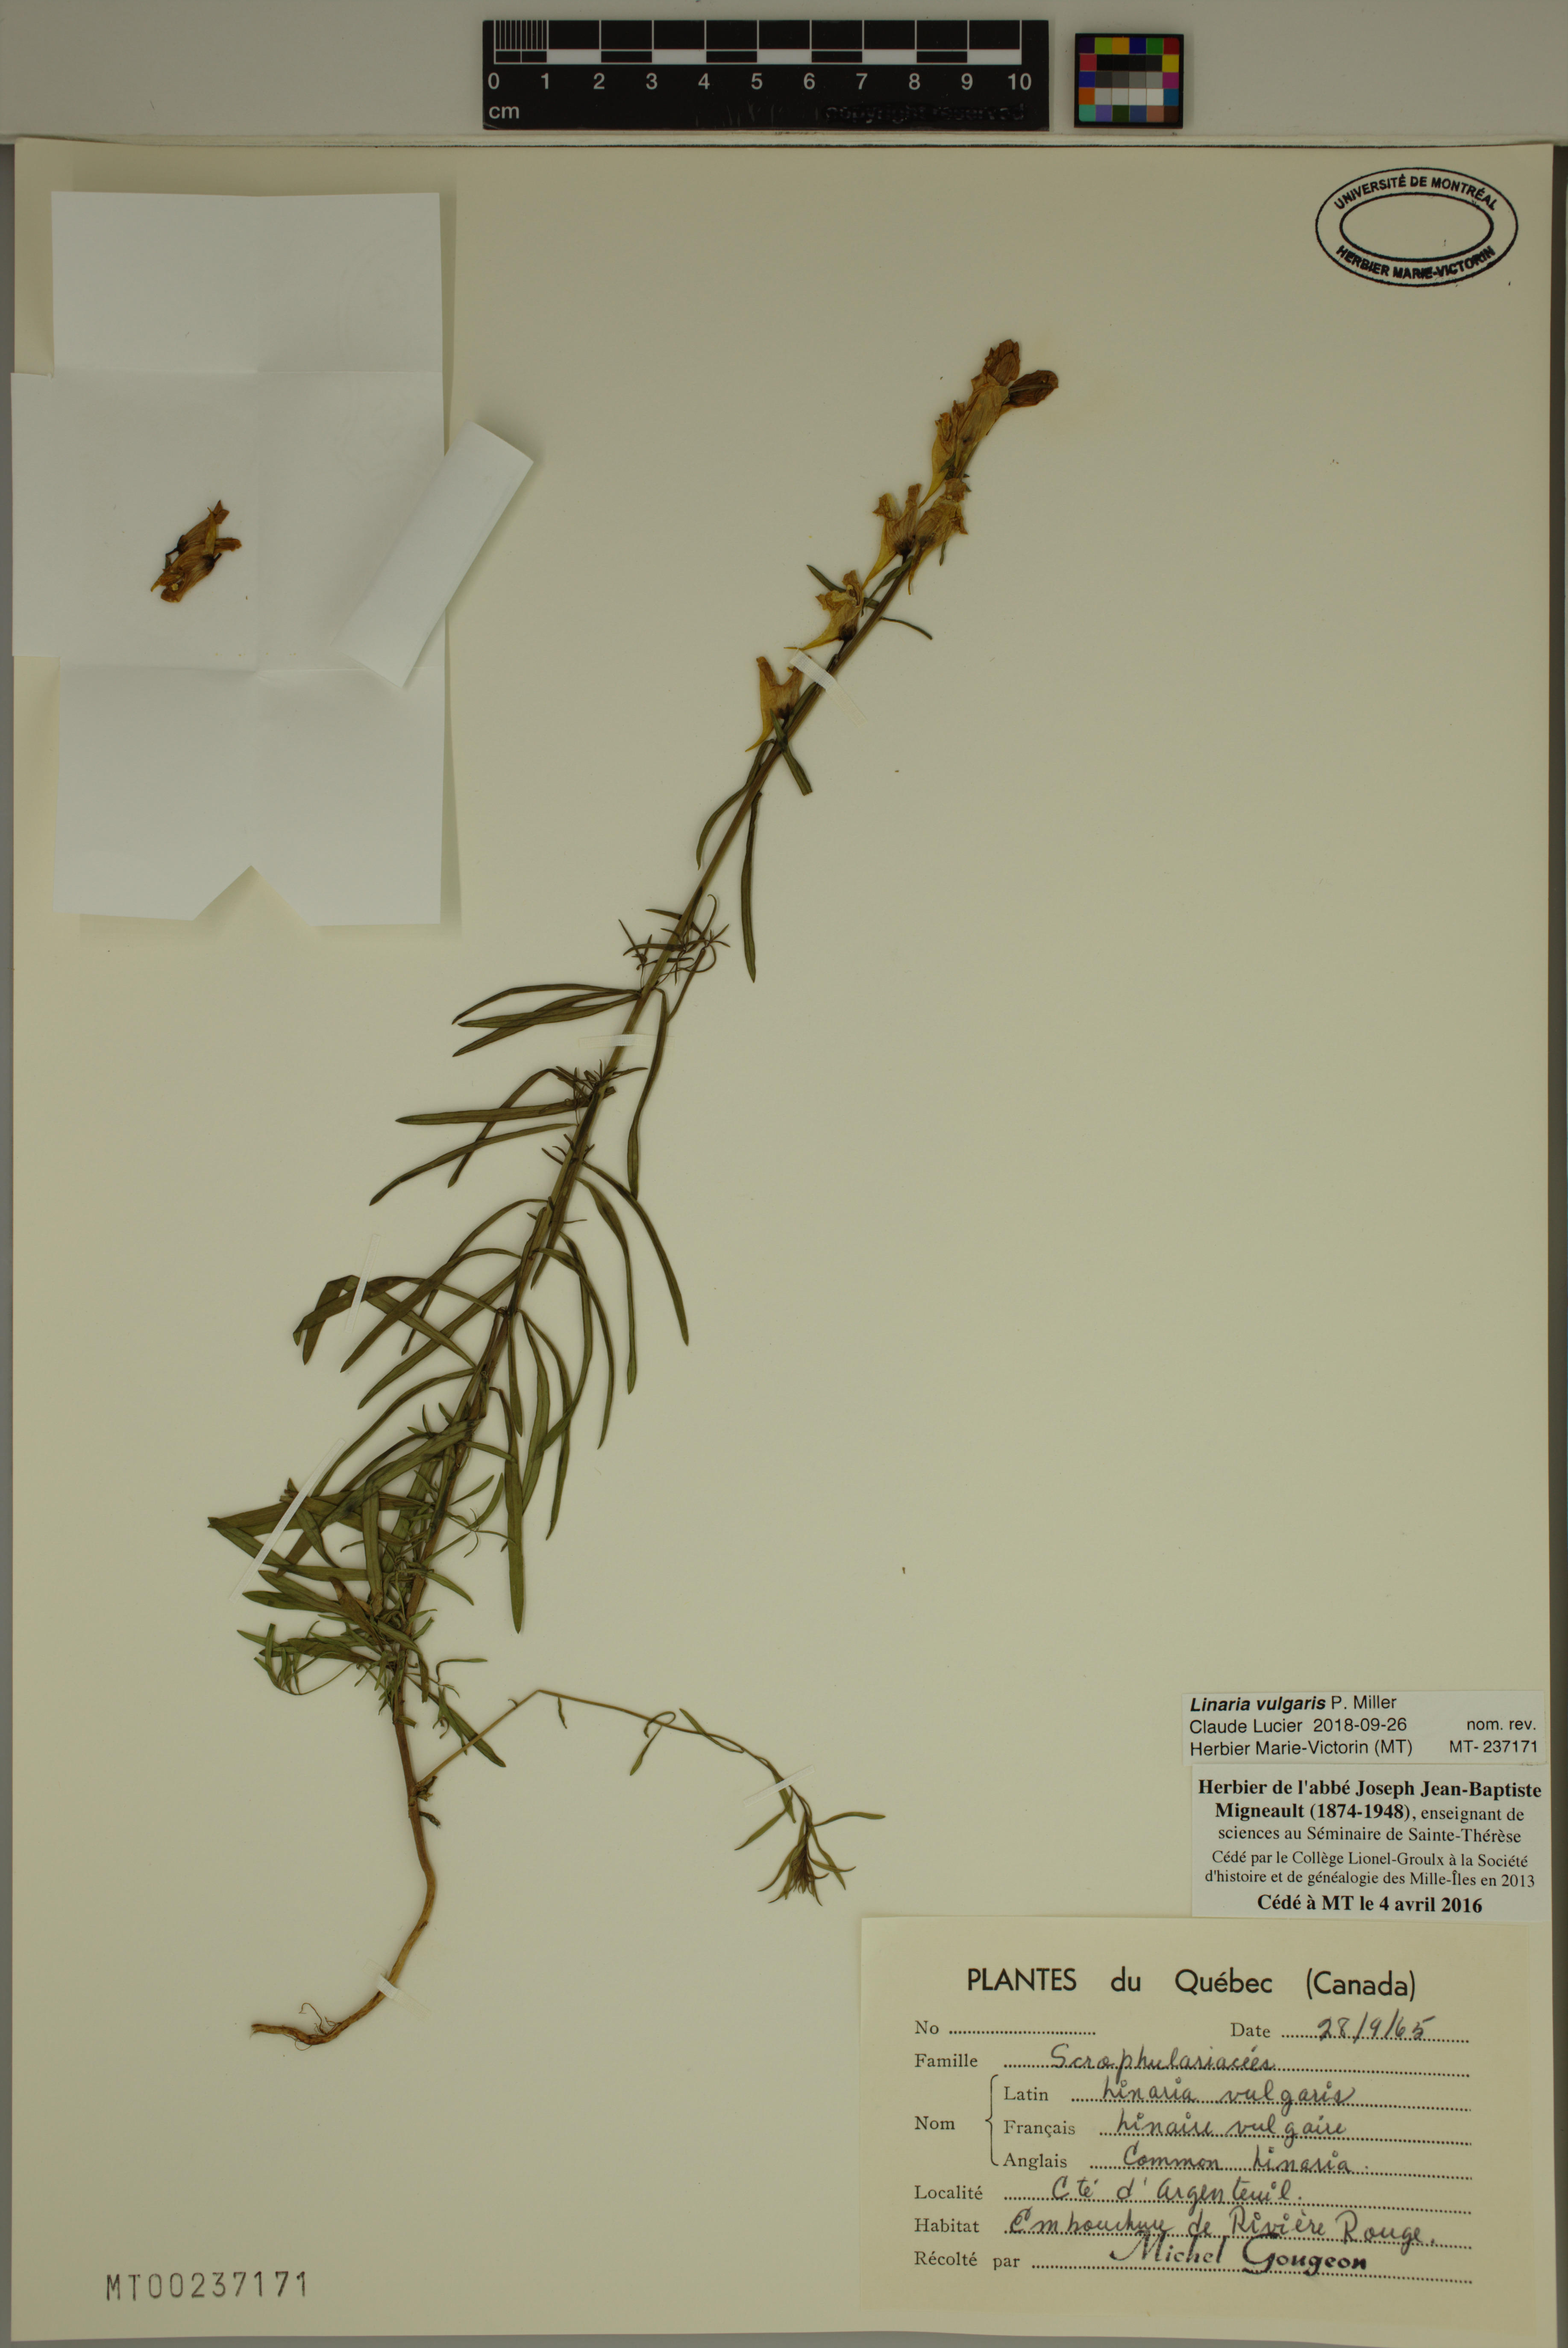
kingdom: Plantae
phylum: Tracheophyta
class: Magnoliopsida
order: Lamiales
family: Plantaginaceae
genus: Linaria
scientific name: Linaria vulgaris
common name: Butter and eggs
